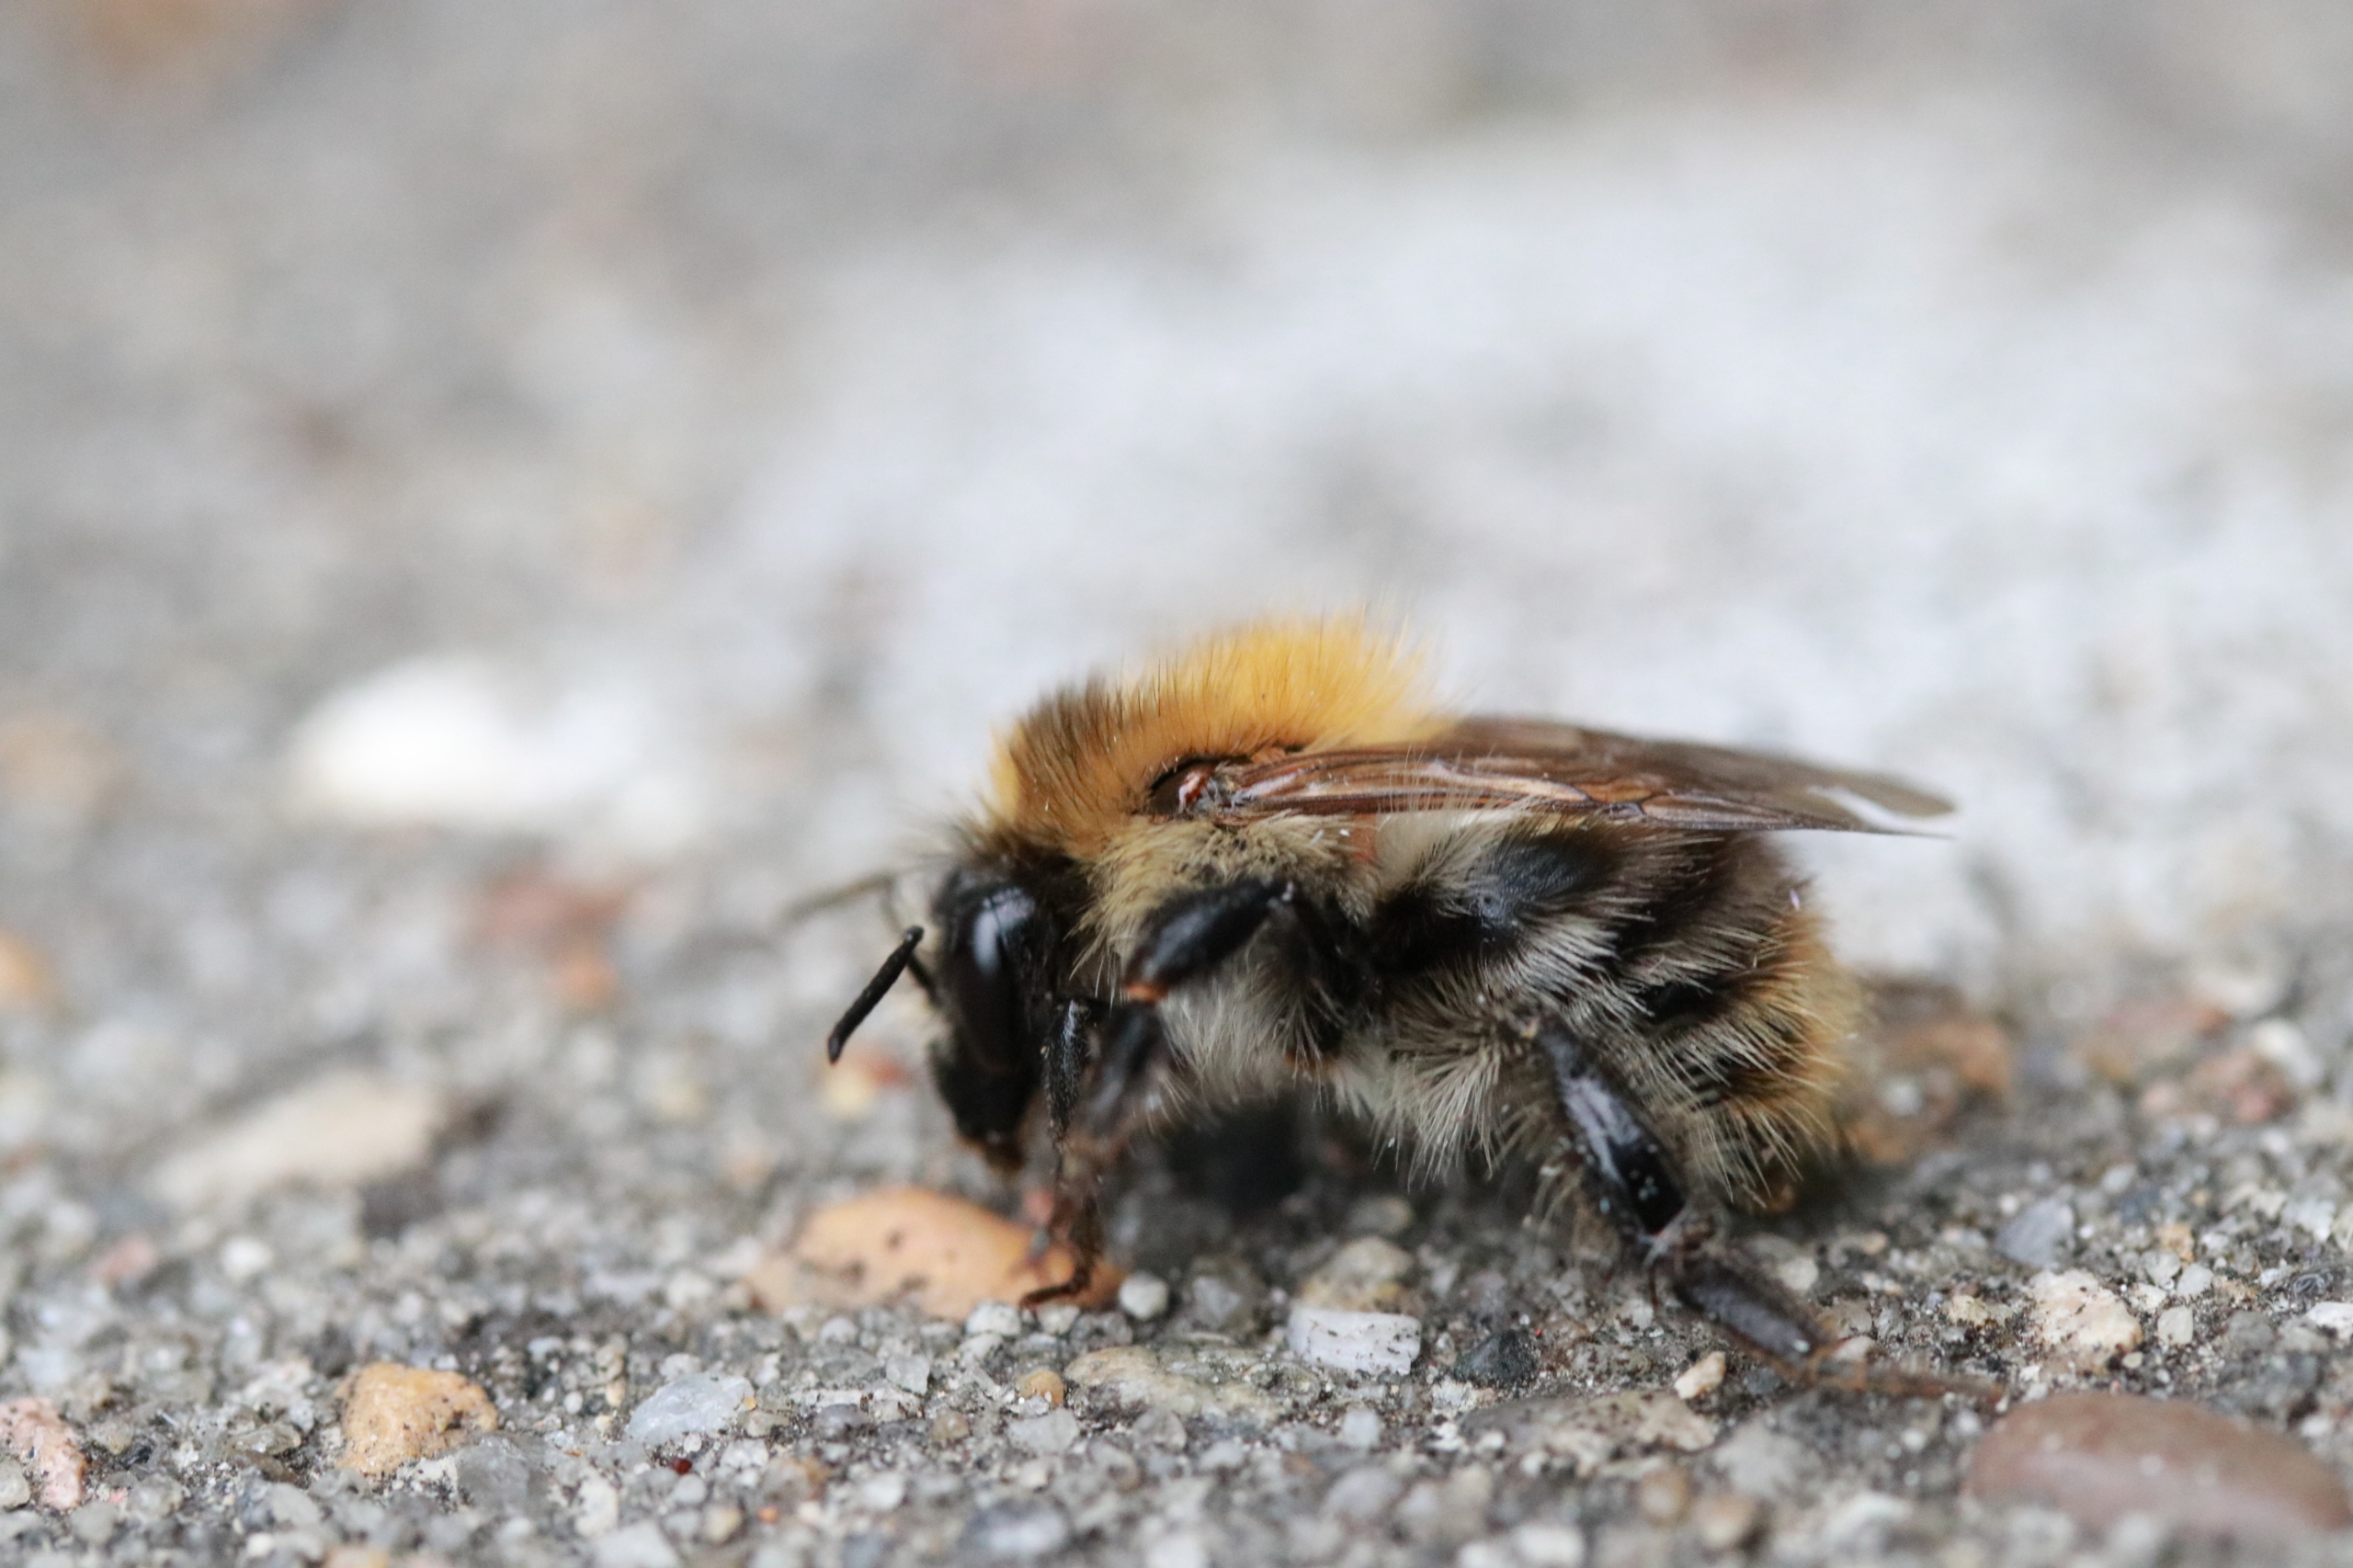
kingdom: Animalia
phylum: Arthropoda
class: Insecta
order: Hymenoptera
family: Apidae
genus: Bombus
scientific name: Bombus pascuorum
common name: Agerhumle
